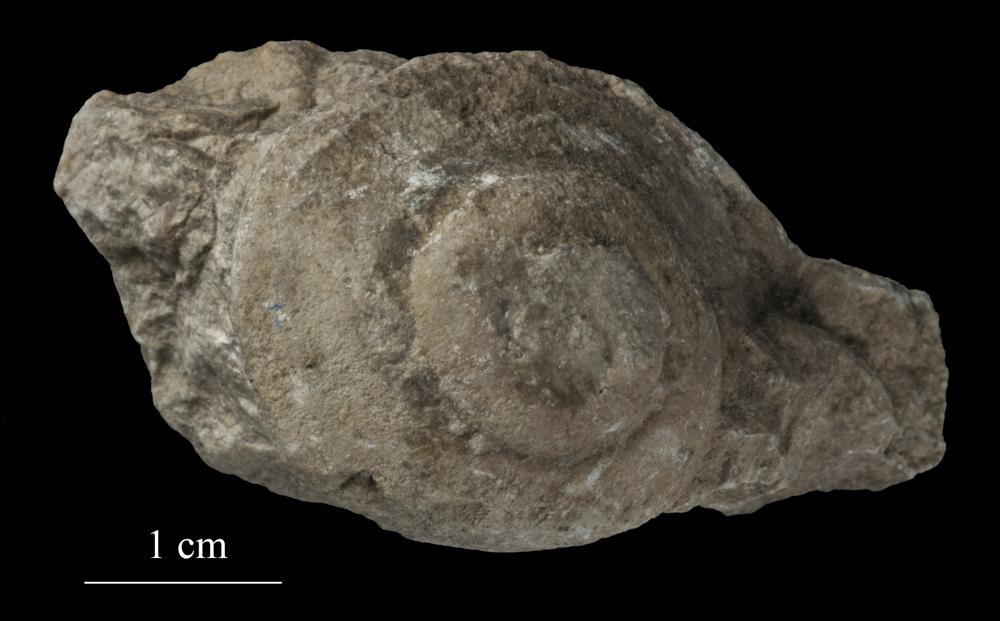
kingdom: Animalia
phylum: Mollusca
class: Gastropoda
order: Pleurotomariida
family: Pleurotomariidae
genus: Pleurotomaria
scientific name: Pleurotomaria
